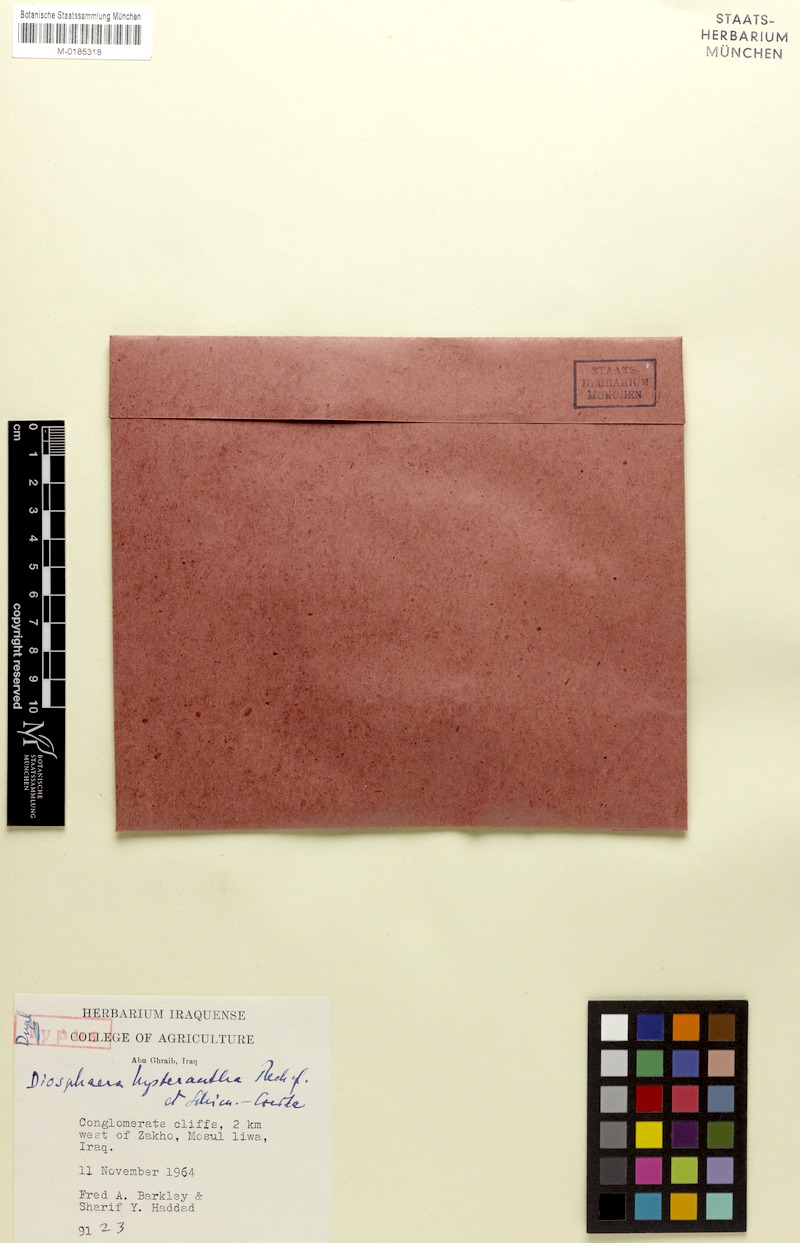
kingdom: Plantae
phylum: Tracheophyta
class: Magnoliopsida
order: Asterales
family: Campanulaceae
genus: Campanula
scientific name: Campanula postii
